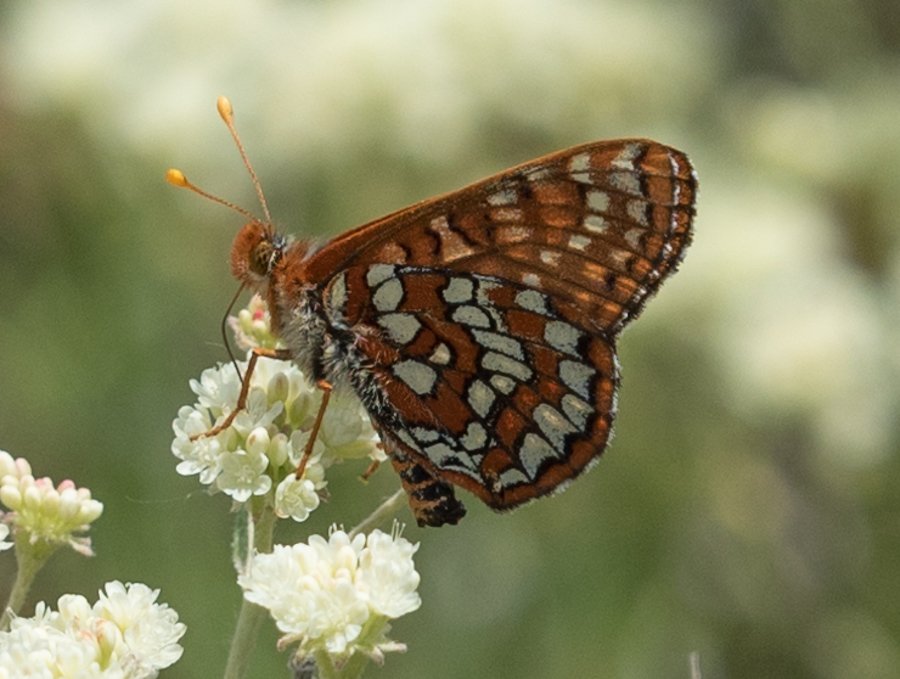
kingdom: Animalia
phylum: Arthropoda
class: Insecta
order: Lepidoptera
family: Nymphalidae
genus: Occidryas
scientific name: Occidryas anicia
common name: Anicia Checkerspot
